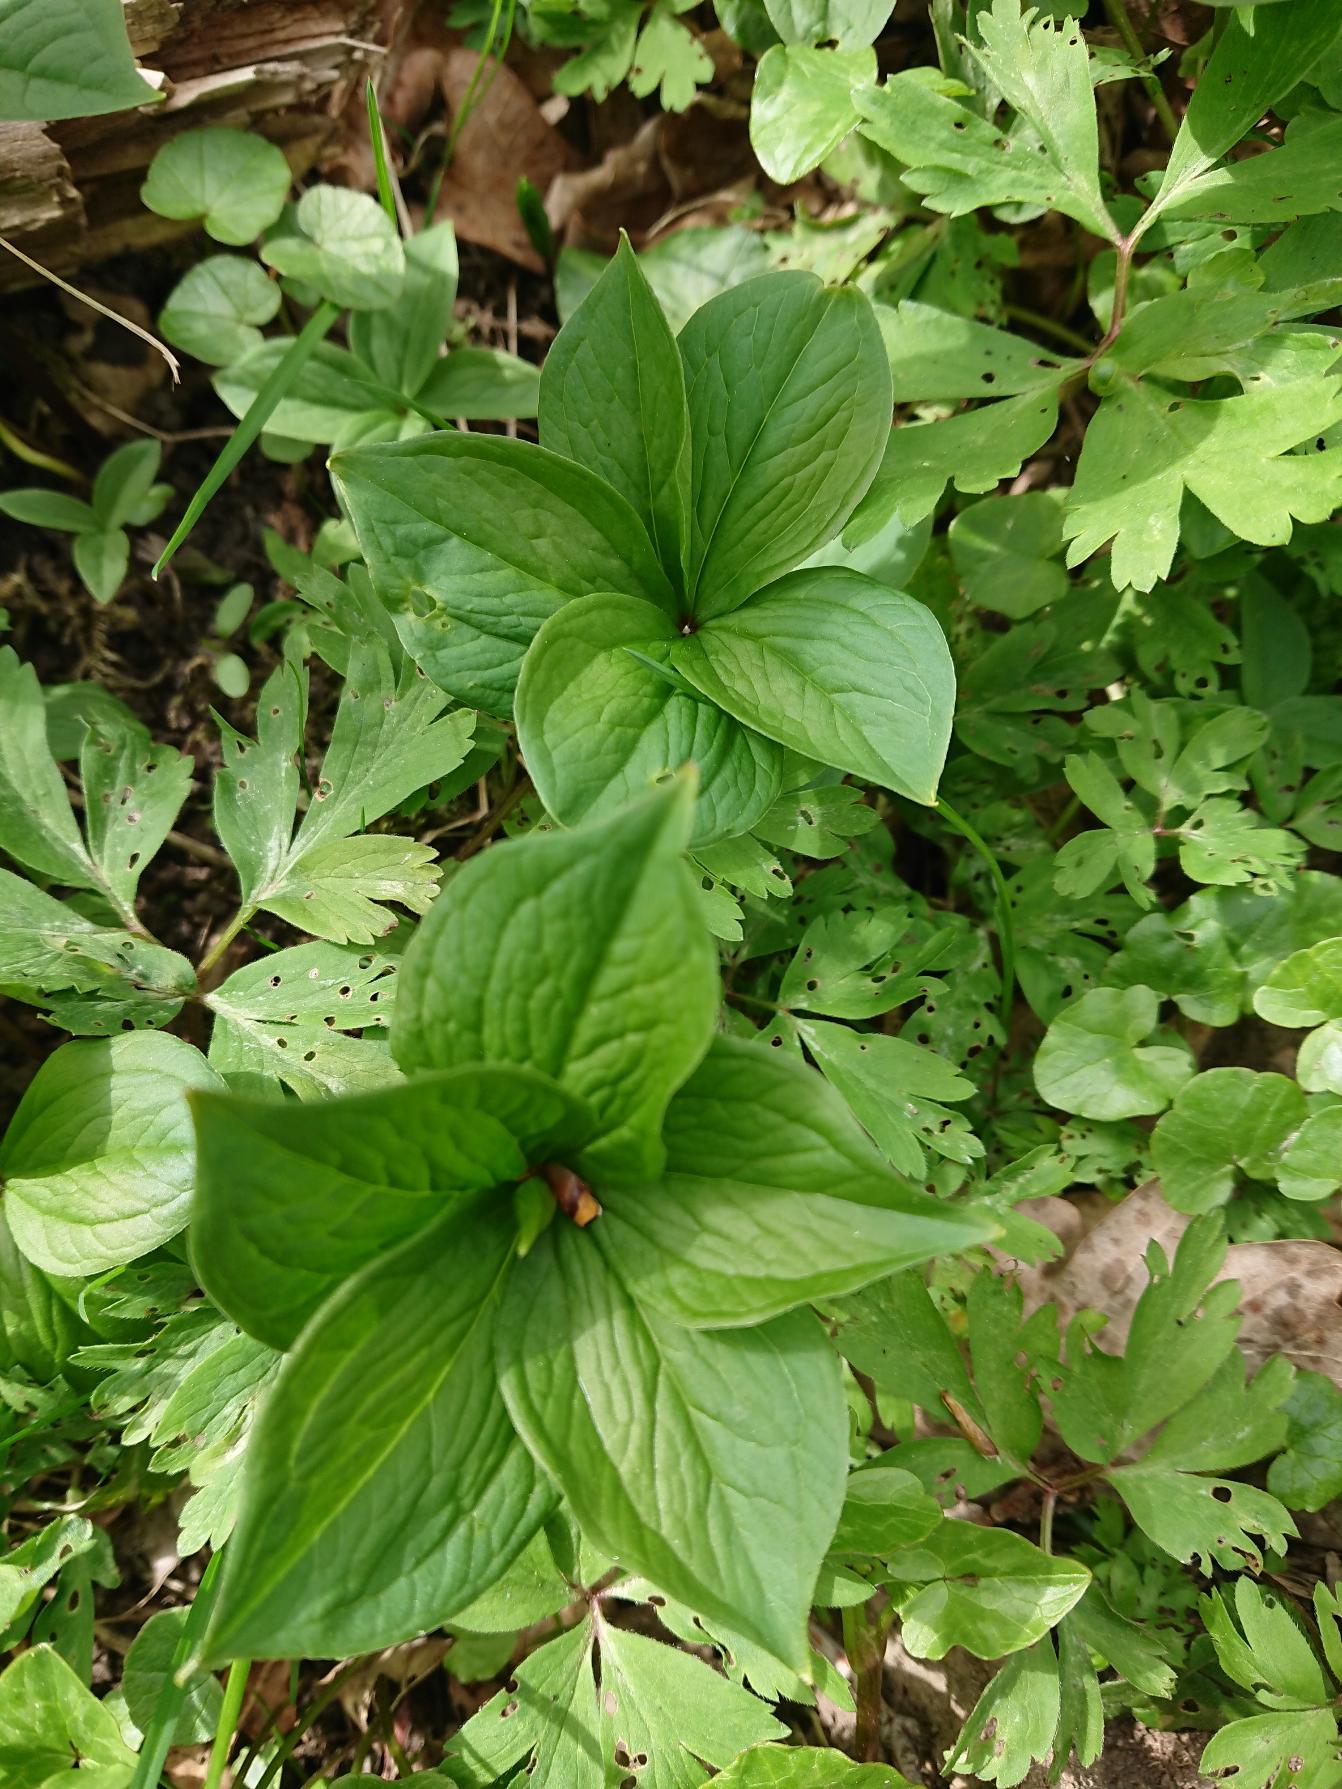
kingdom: Plantae
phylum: Tracheophyta
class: Liliopsida
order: Liliales
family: Melanthiaceae
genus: Paris
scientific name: Paris quadrifolia
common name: Firblad
